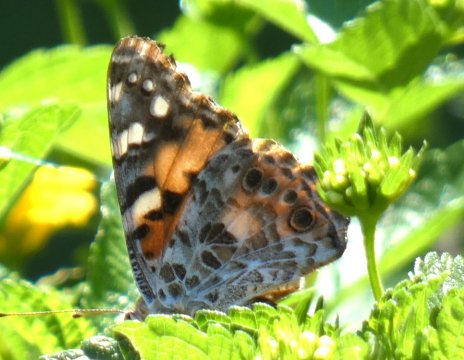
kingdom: Animalia
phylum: Arthropoda
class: Insecta
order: Lepidoptera
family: Nymphalidae
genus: Vanessa
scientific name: Vanessa cardui
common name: Painted Lady
